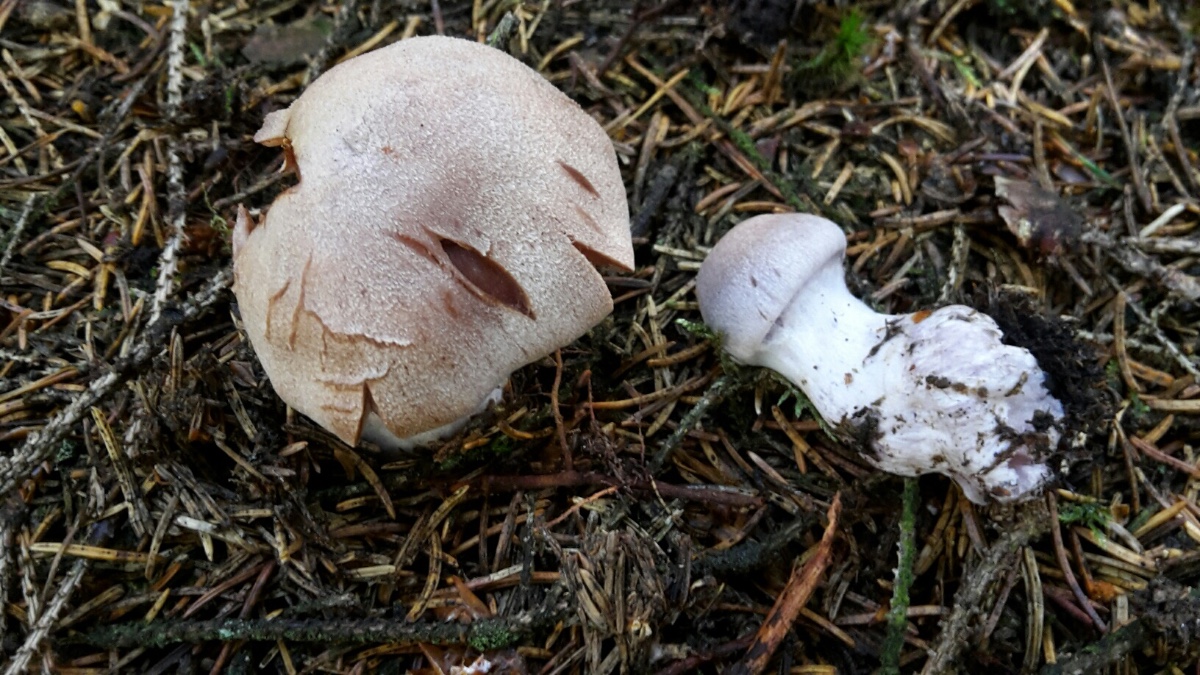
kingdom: Fungi
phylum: Basidiomycota
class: Agaricomycetes
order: Agaricales
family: Cortinariaceae
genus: Cortinarius
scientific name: Cortinarius malachius
